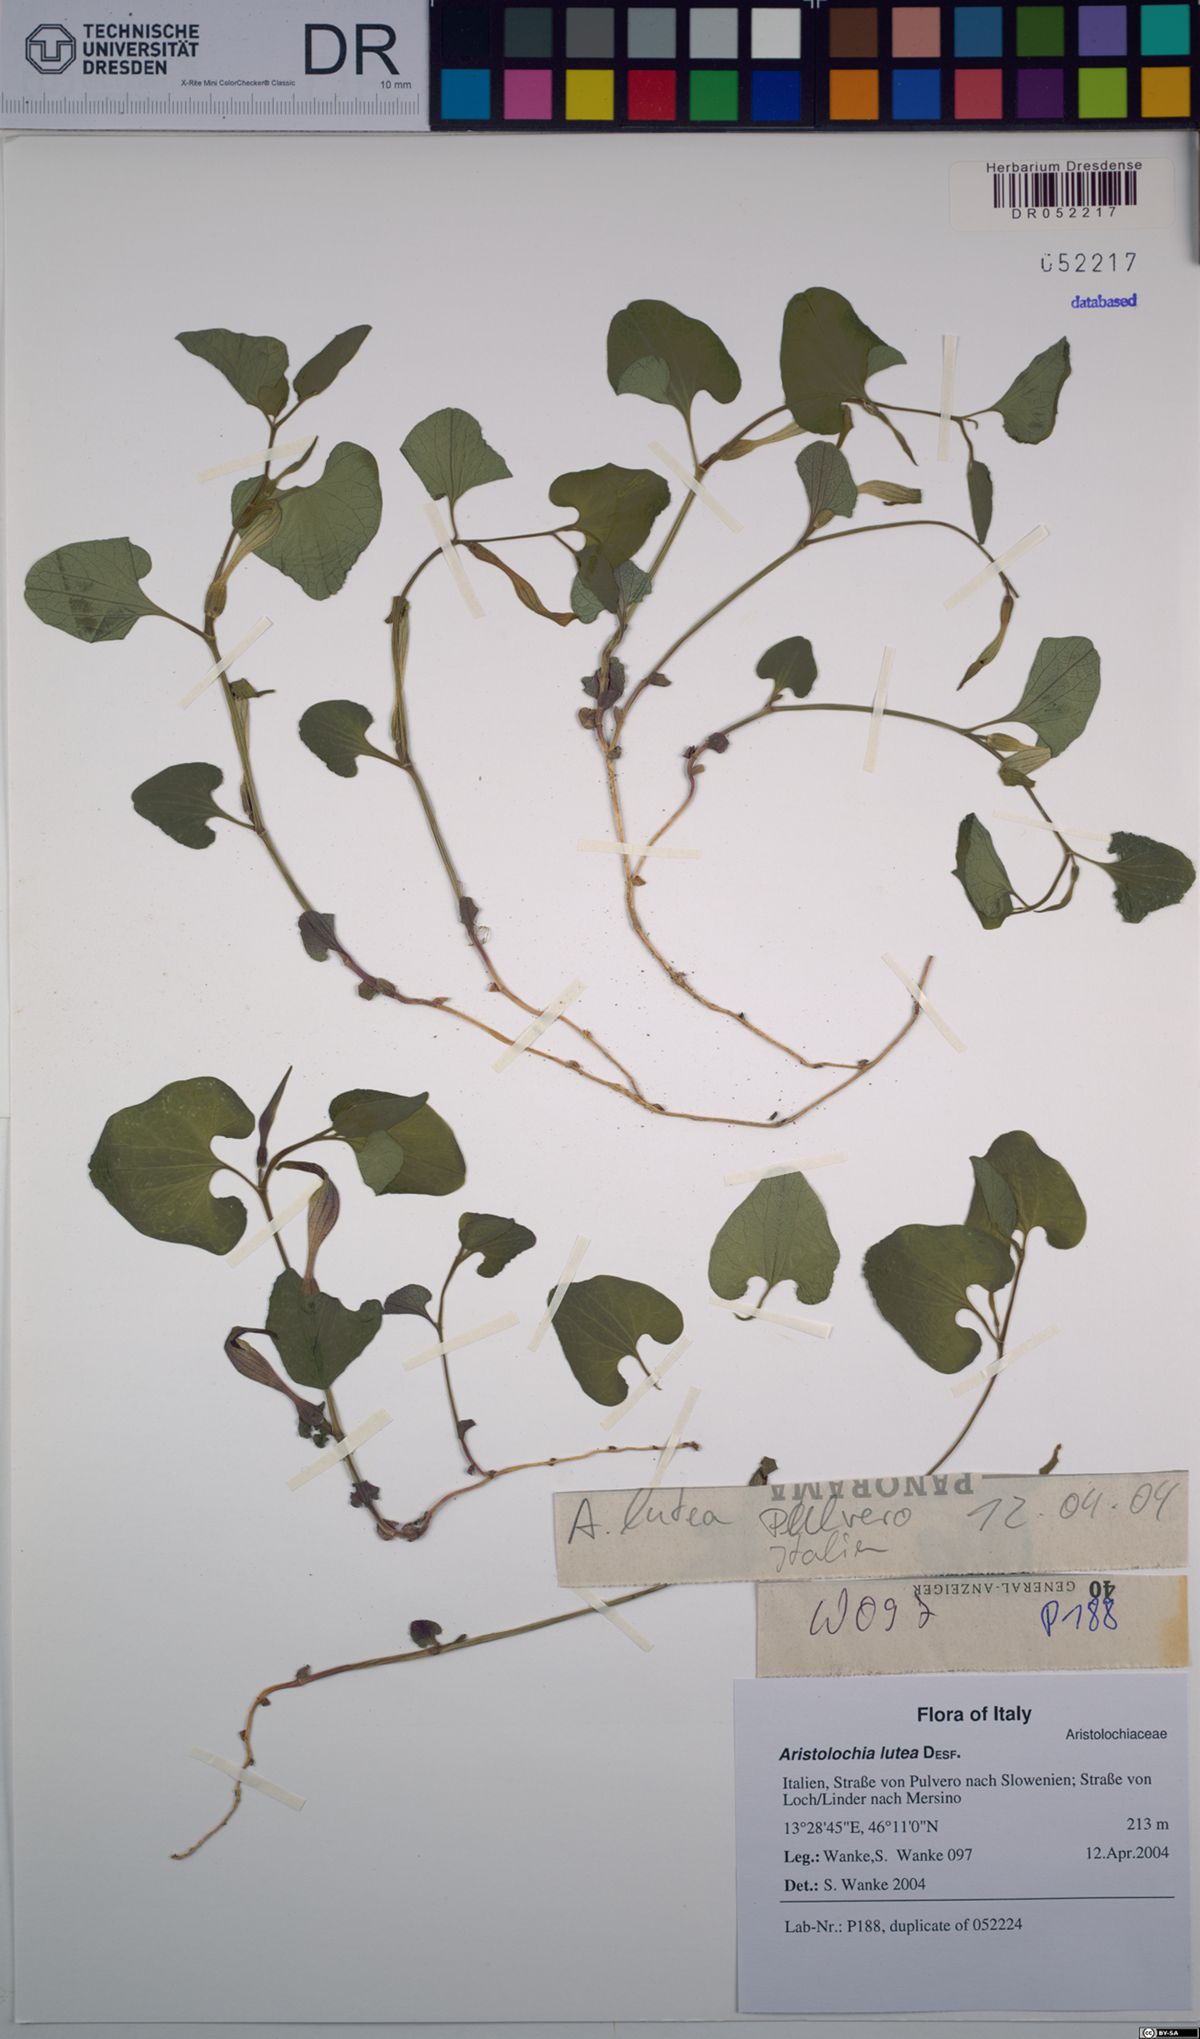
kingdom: Plantae
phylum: Tracheophyta
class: Magnoliopsida
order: Piperales
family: Aristolochiaceae
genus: Aristolochia
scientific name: Aristolochia lutea
